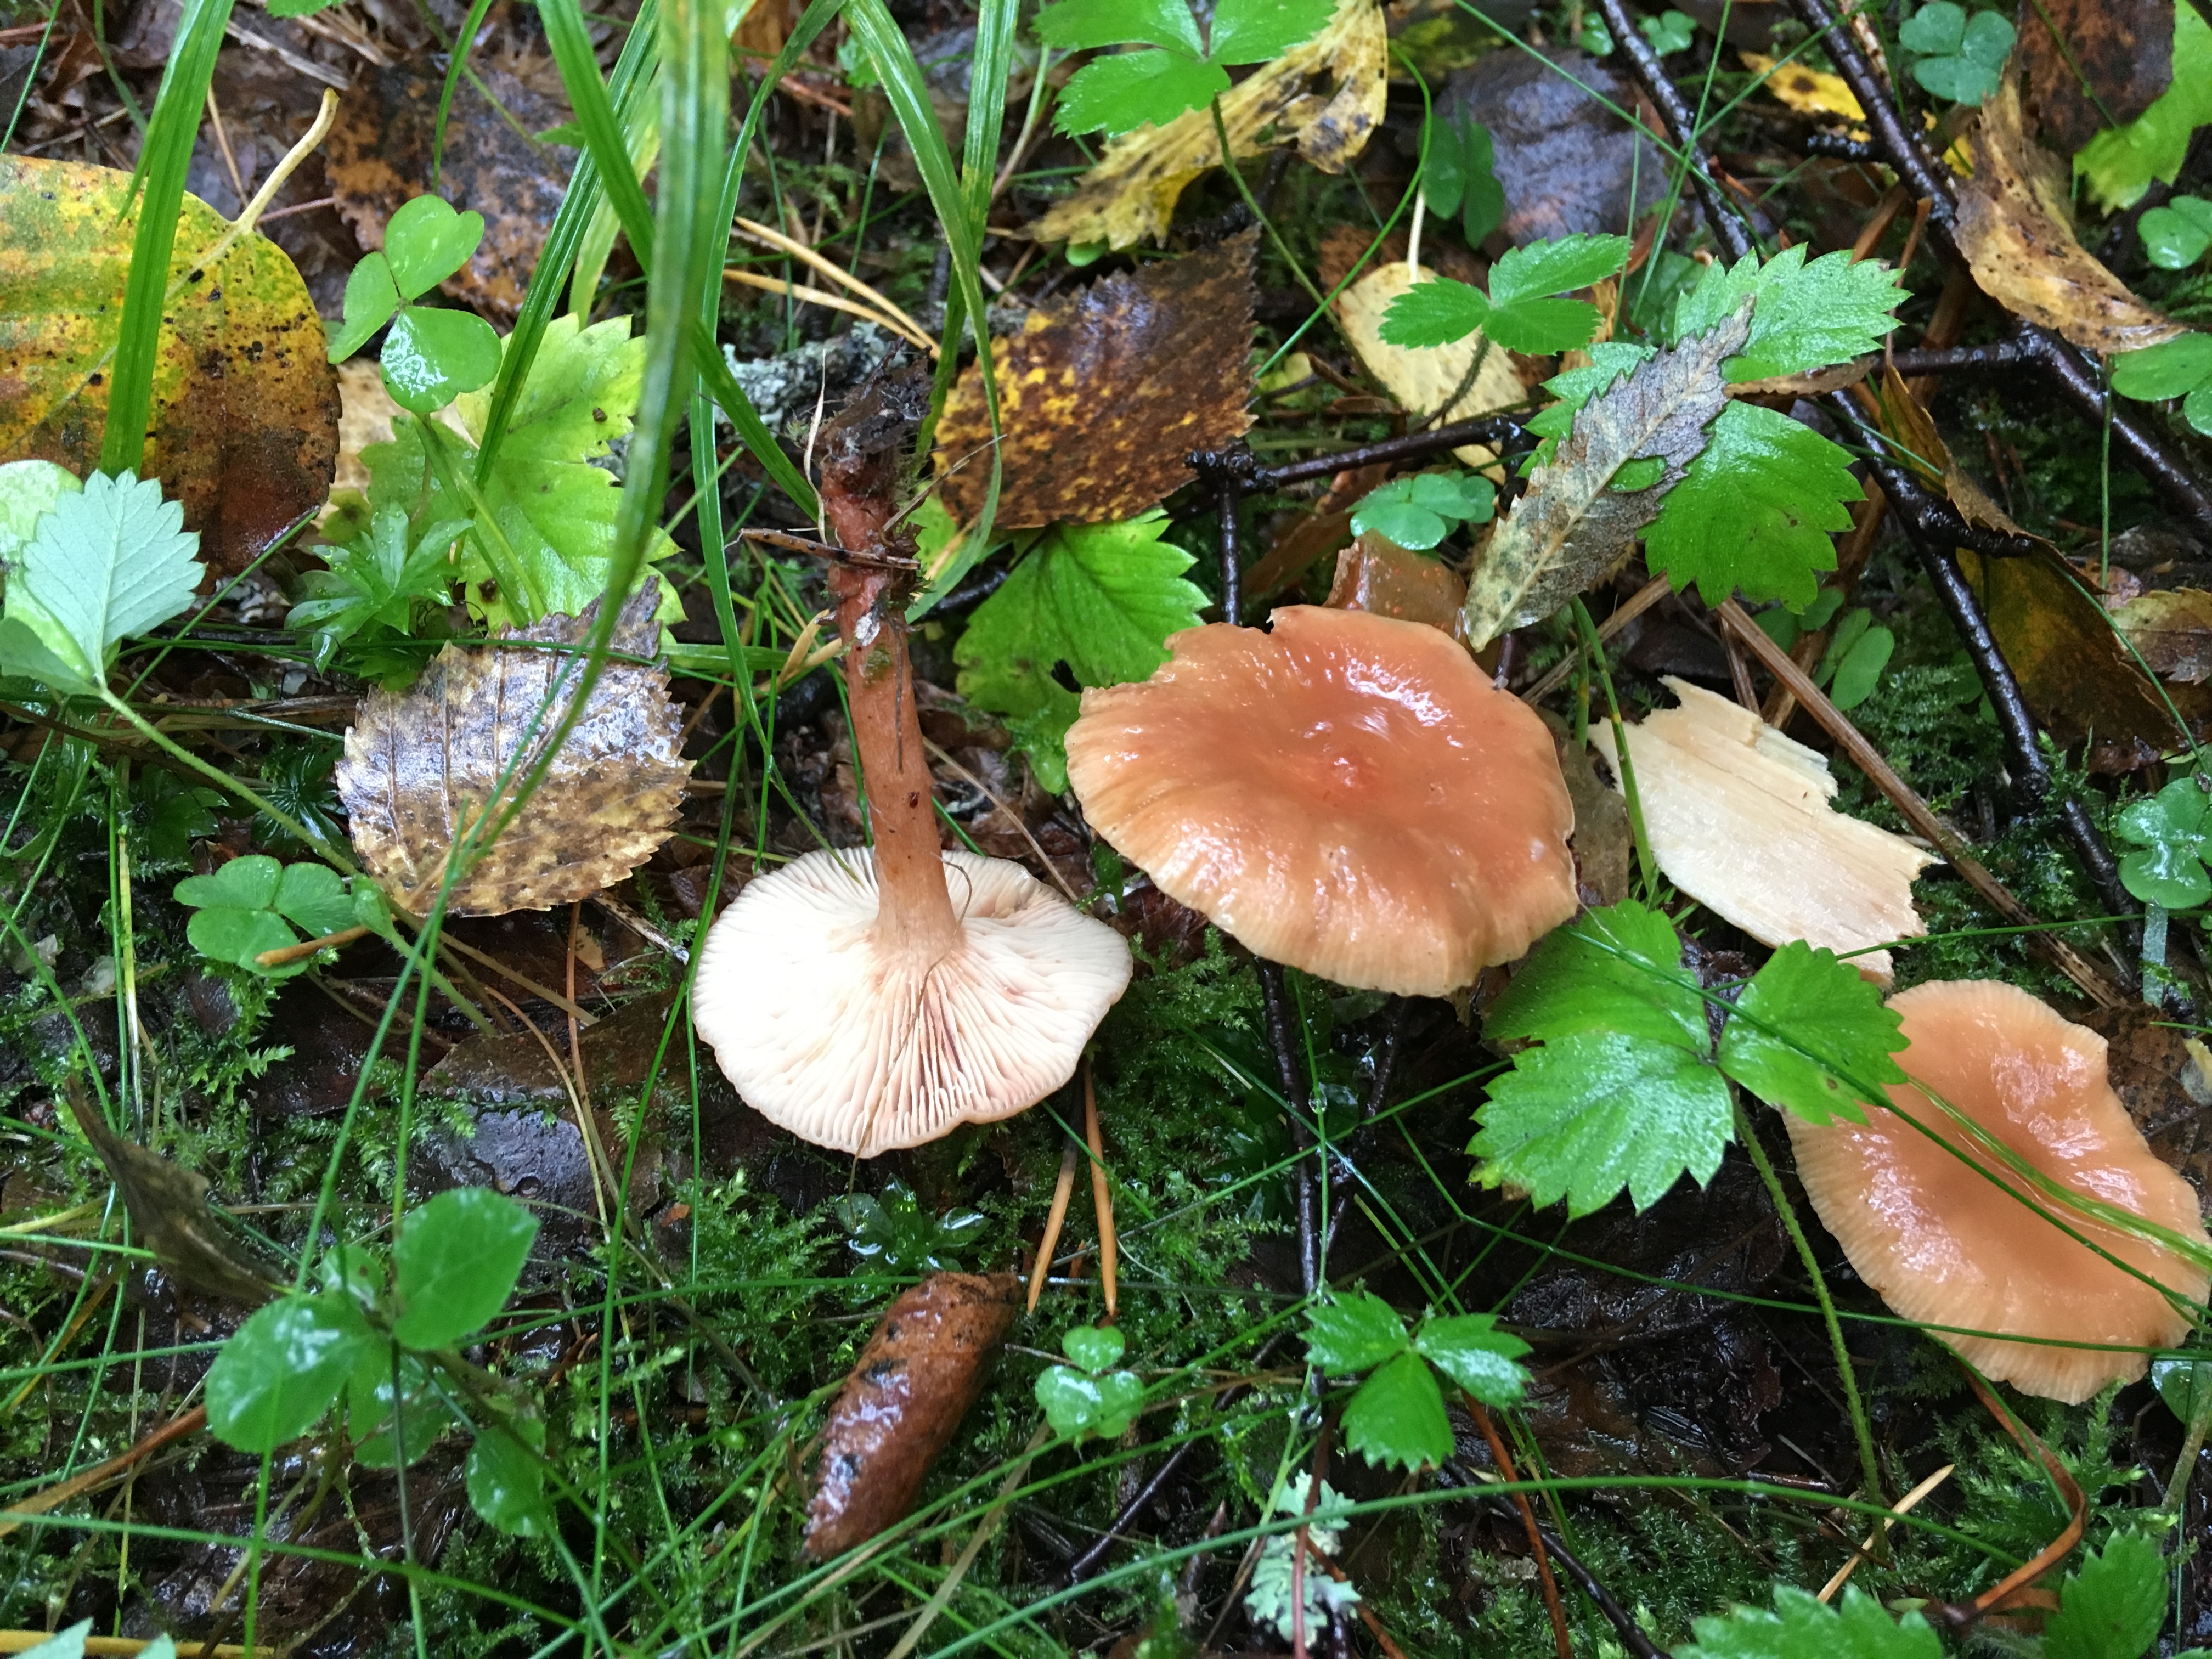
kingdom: Fungi
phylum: Basidiomycota
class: Agaricomycetes
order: Russulales
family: Russulaceae
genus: Lactarius
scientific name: Lactarius tabidus
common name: Birch milkcap
